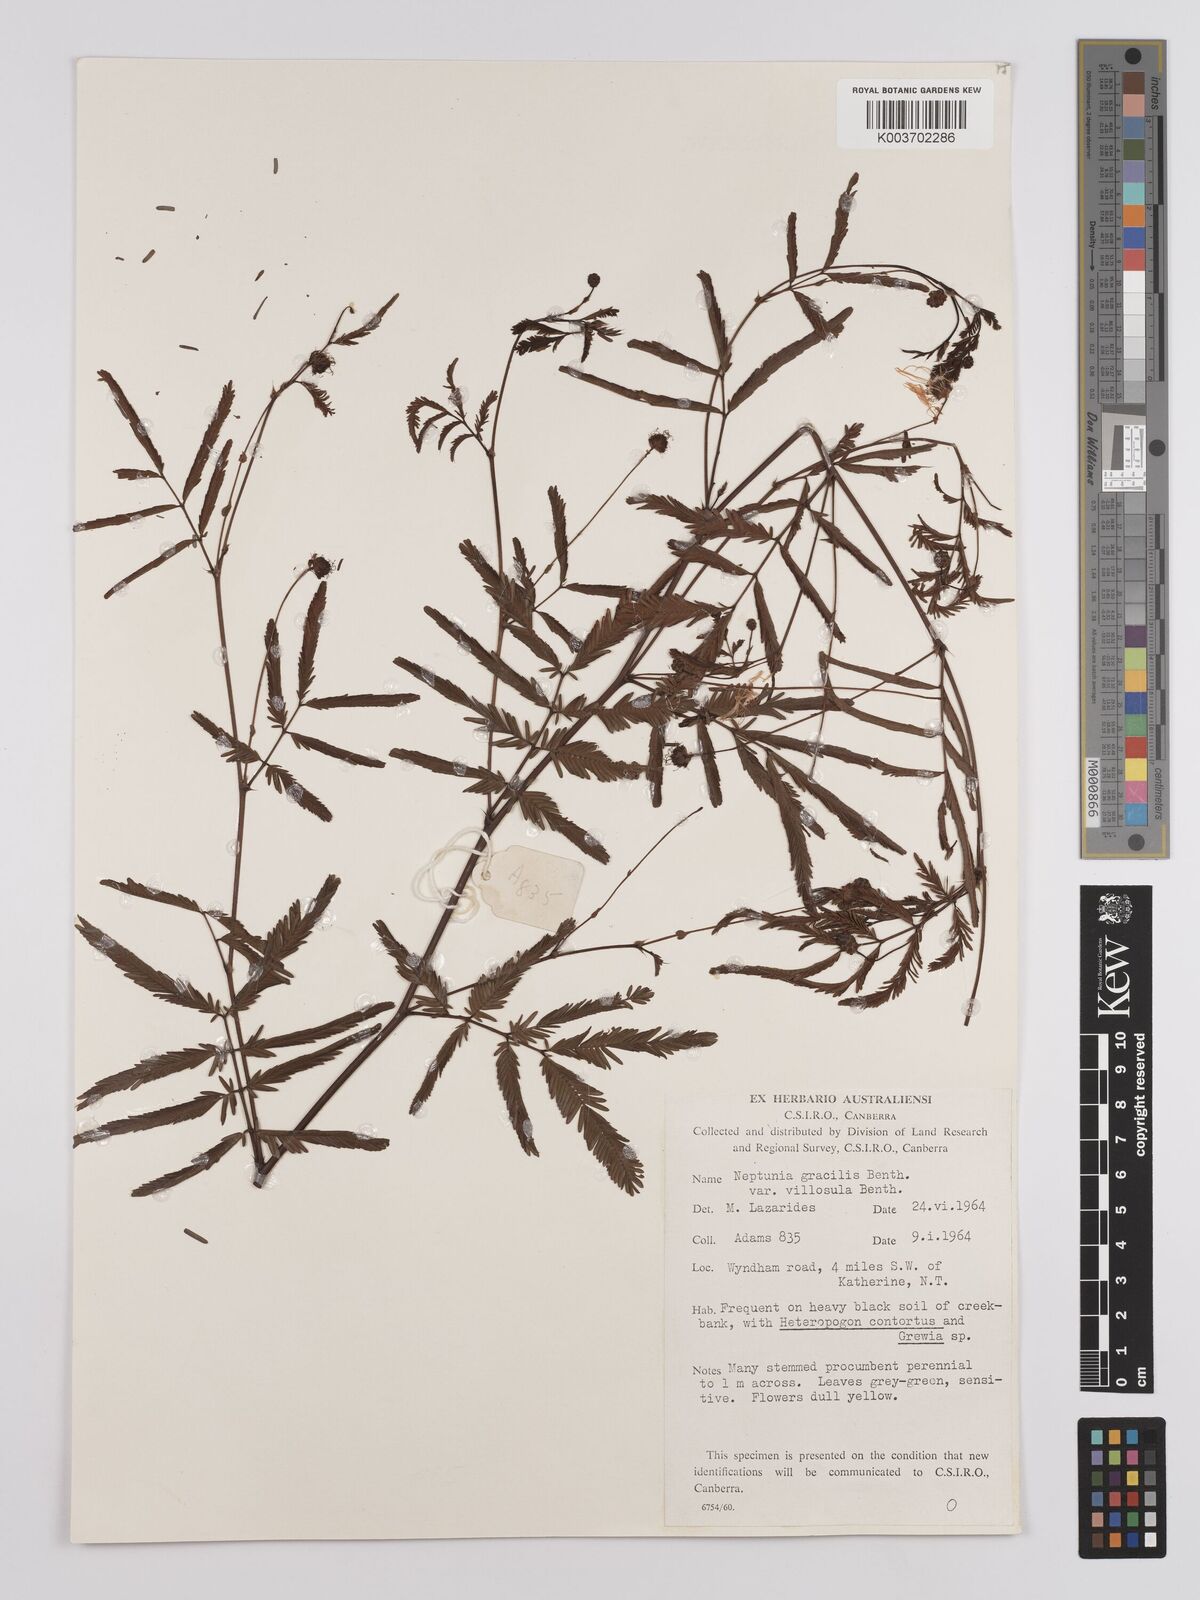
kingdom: Plantae
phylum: Tracheophyta
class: Magnoliopsida
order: Fabales
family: Fabaceae
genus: Neptunia
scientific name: Neptunia gracilis
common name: Sensitive-plant
